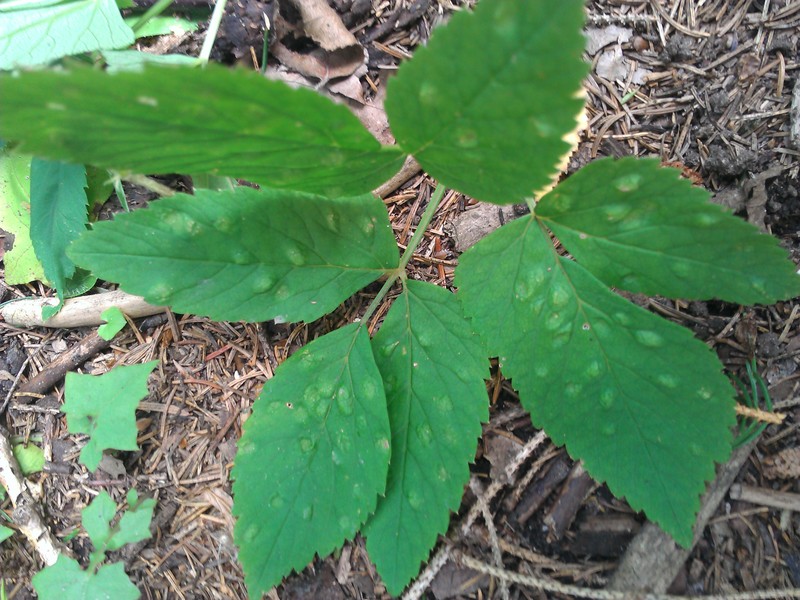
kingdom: Animalia
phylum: Arthropoda
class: Insecta
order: Hemiptera
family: Triozidae
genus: Trioza
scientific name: Trioza flavipennis
